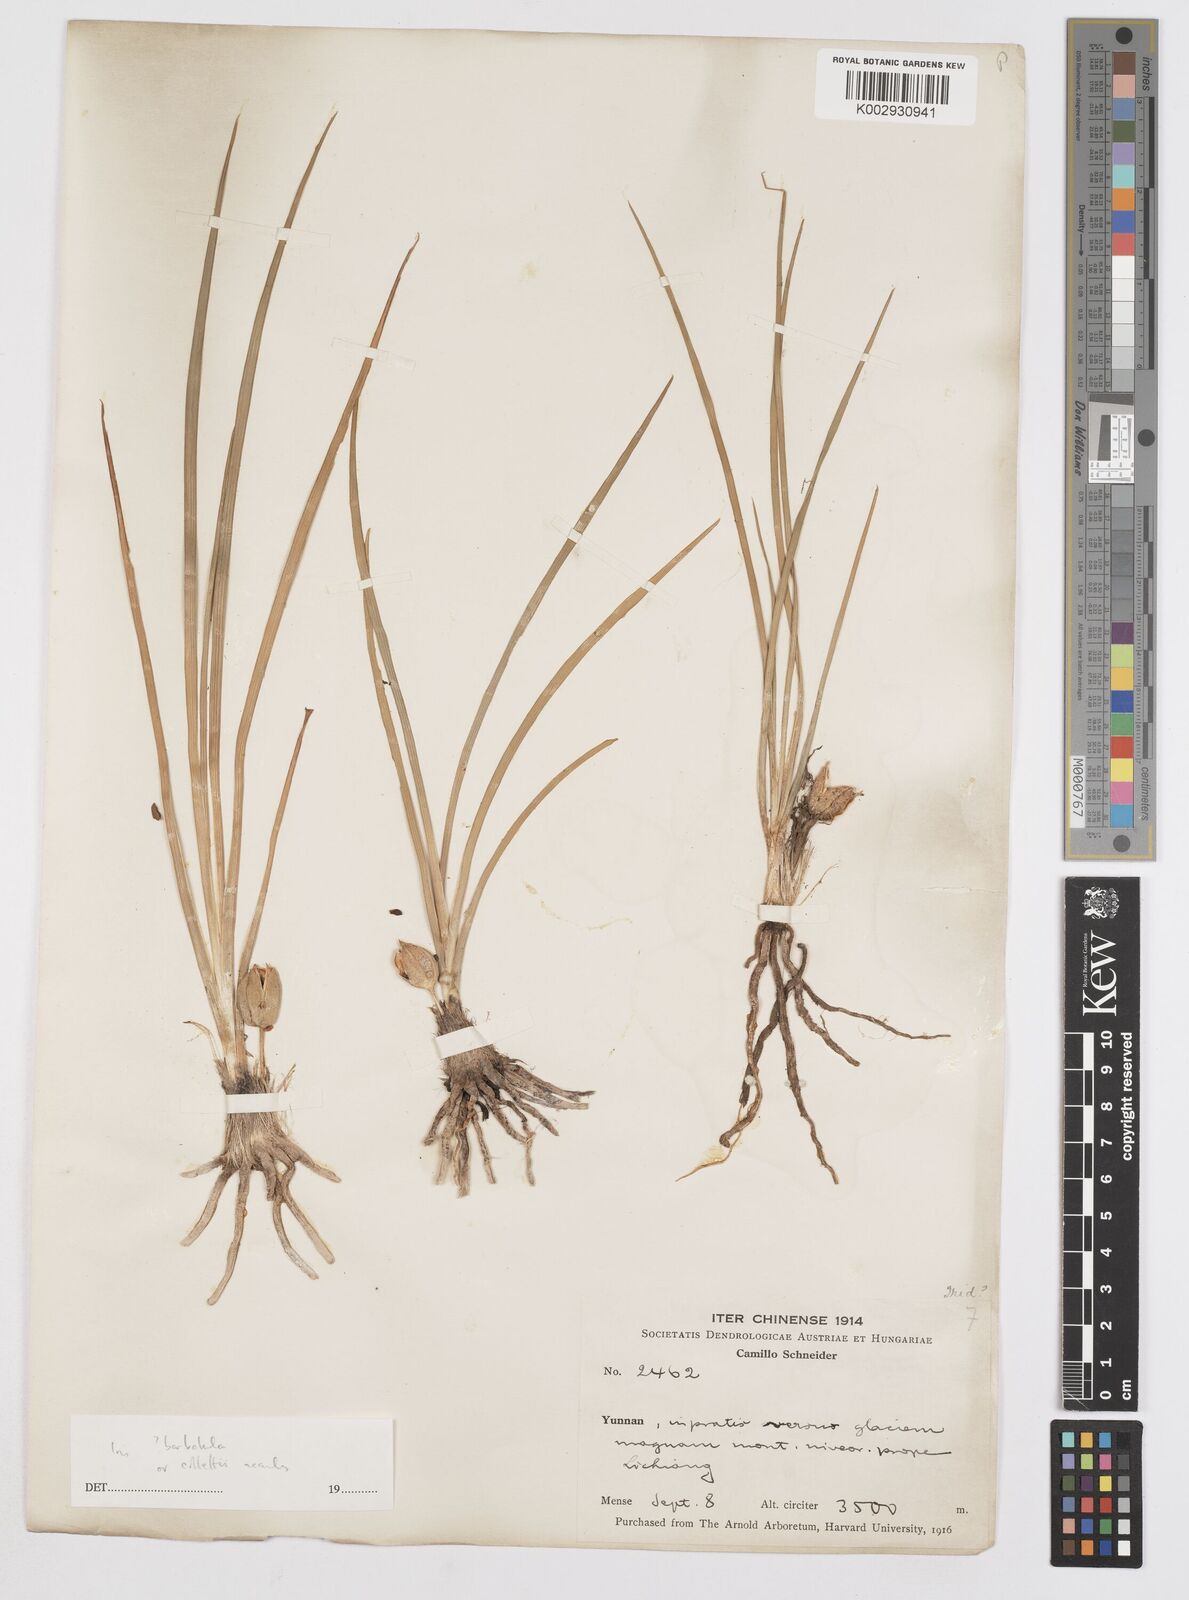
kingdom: Plantae
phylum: Tracheophyta
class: Liliopsida
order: Asparagales
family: Iridaceae
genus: Iris
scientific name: Iris collettii
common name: Plateau iris
